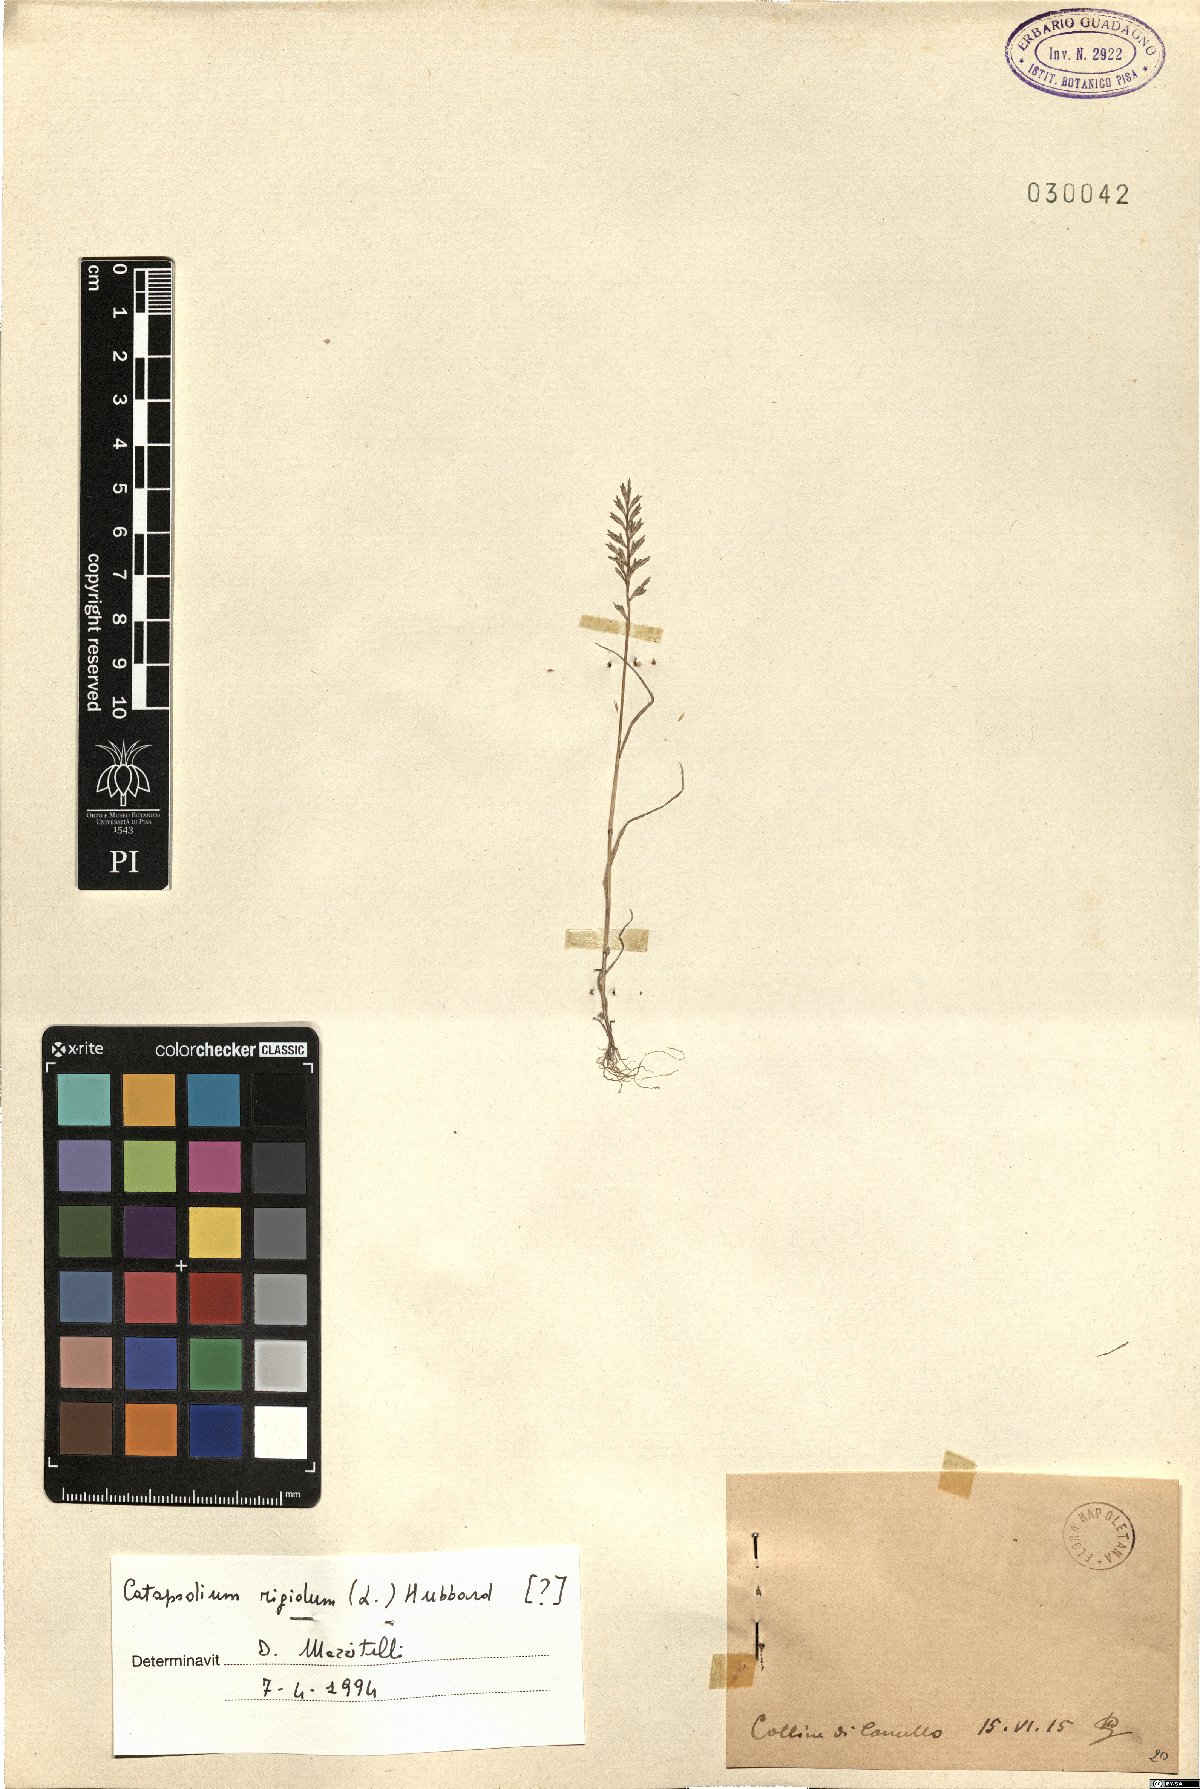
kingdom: Plantae
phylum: Tracheophyta
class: Liliopsida
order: Poales
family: Poaceae
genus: Catapodium
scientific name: Catapodium rigidum
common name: Fern-grass
